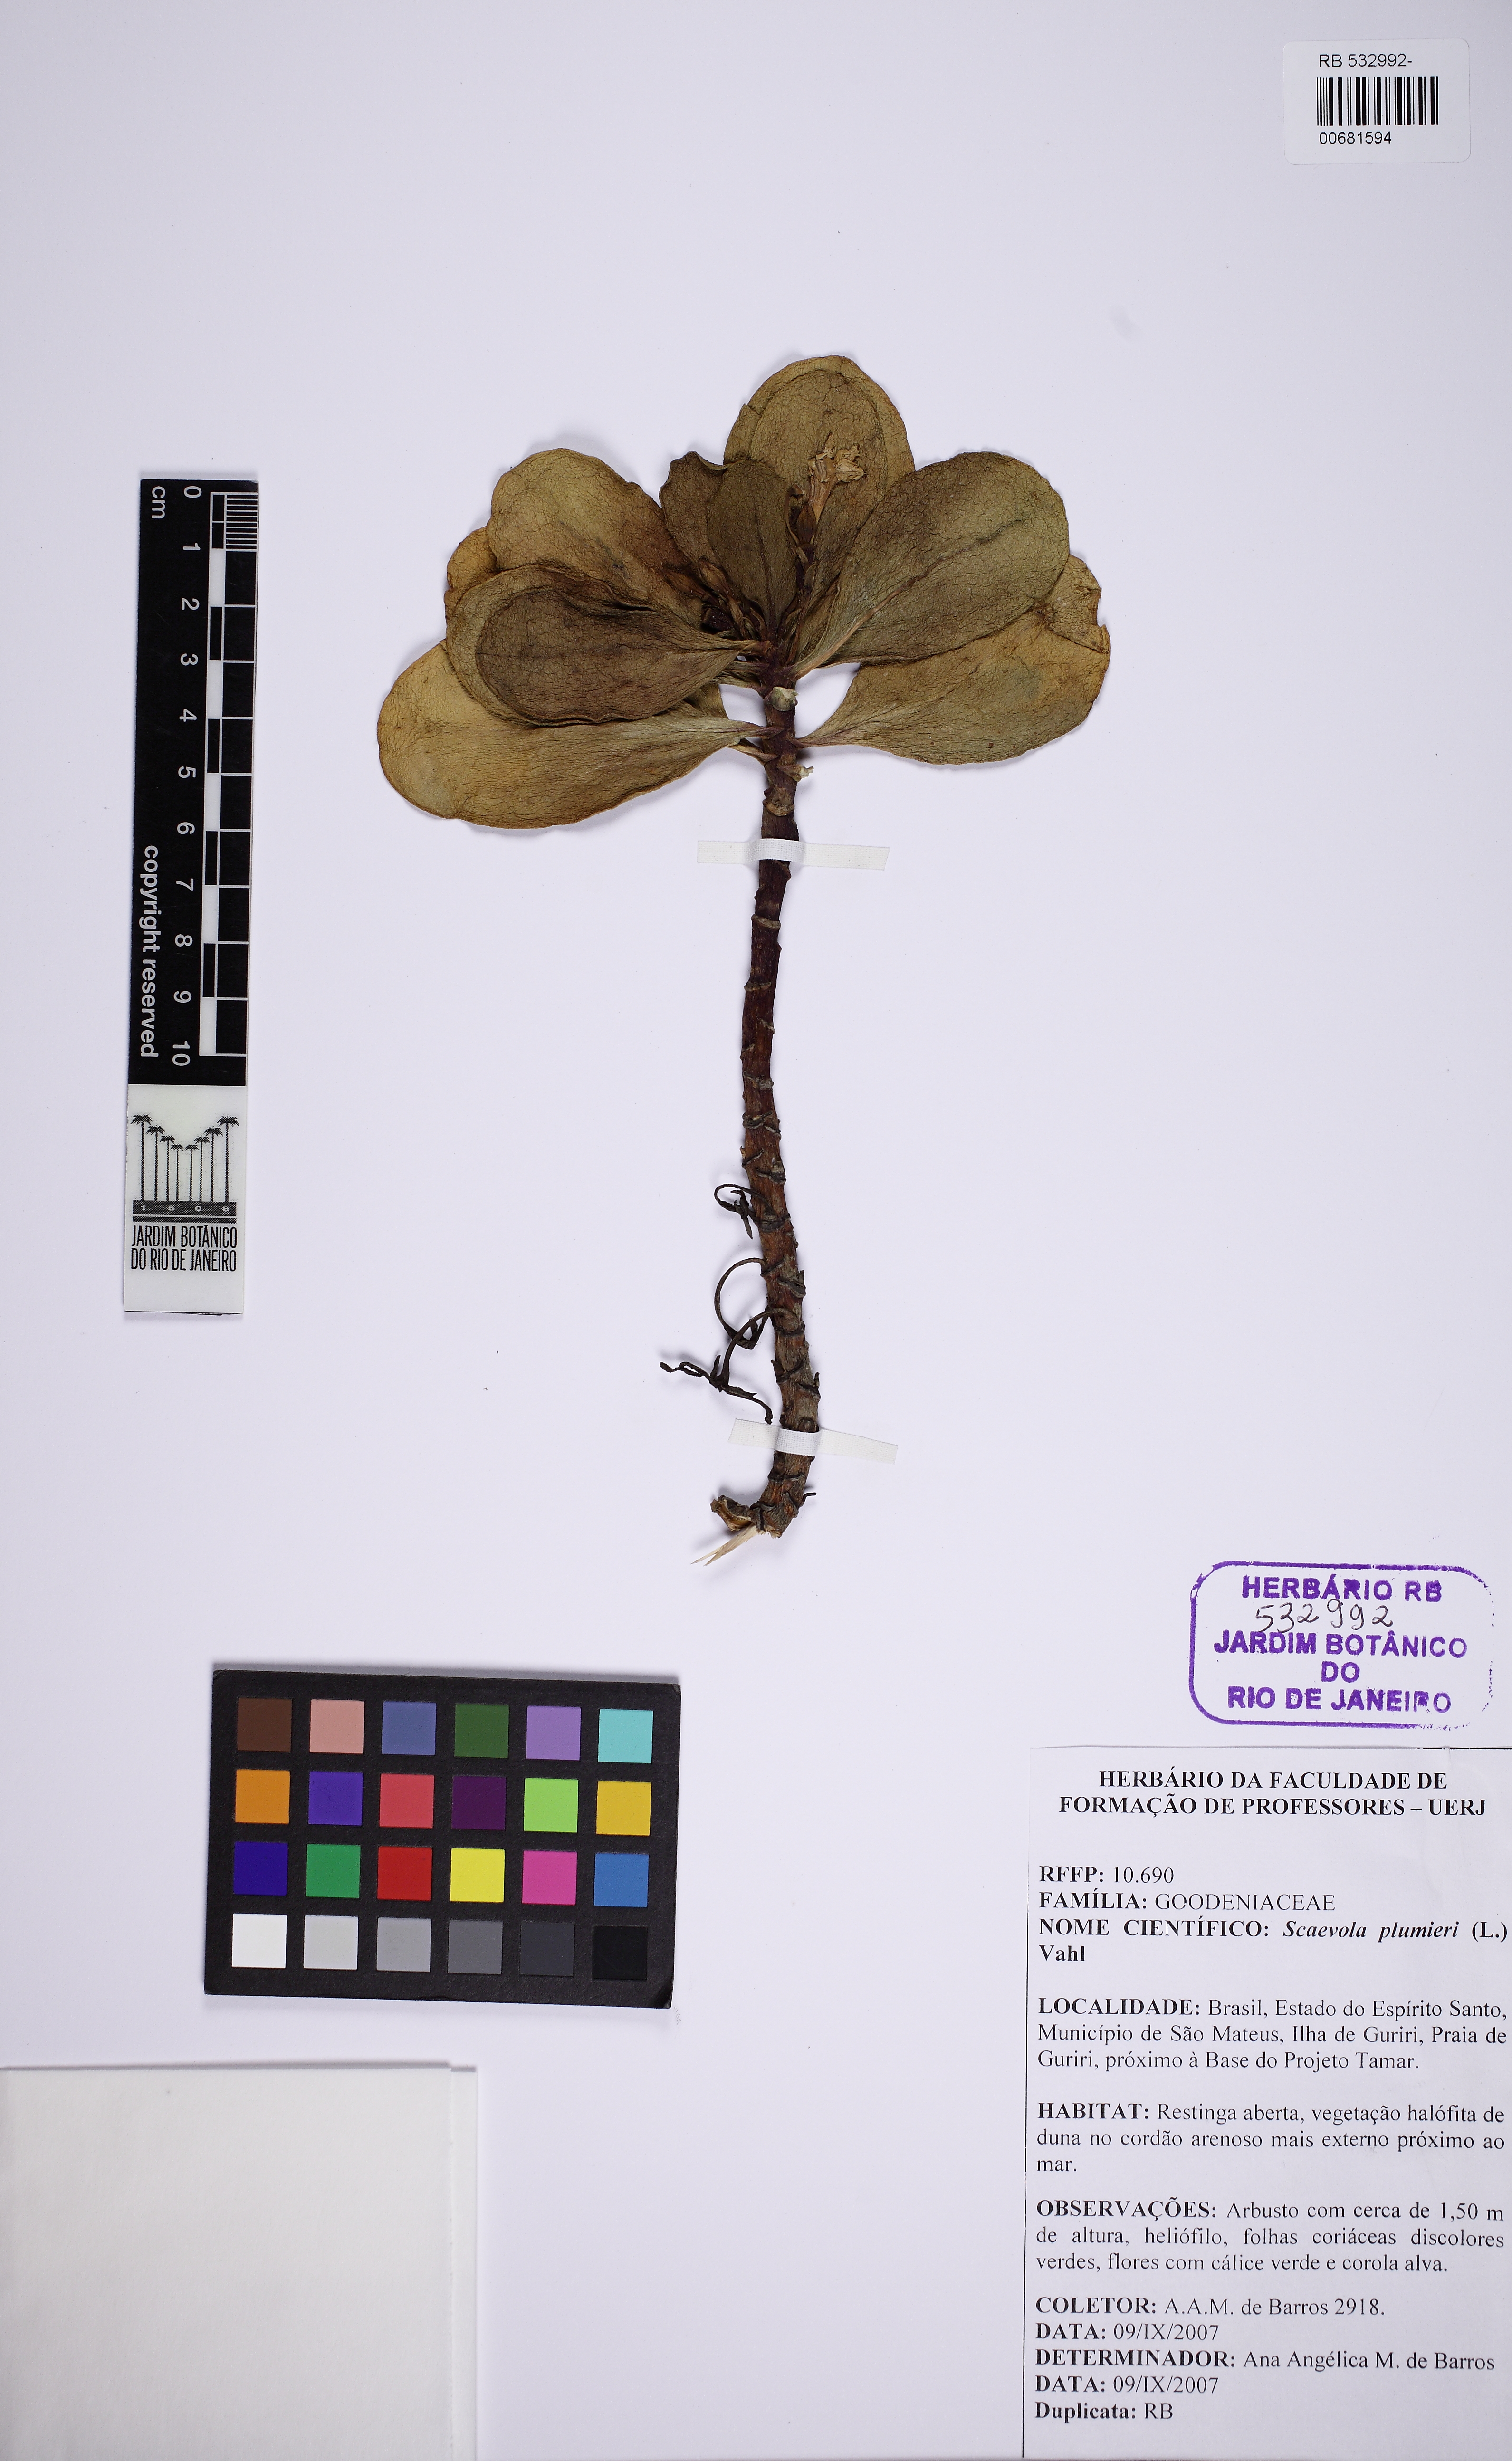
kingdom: Plantae
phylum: Tracheophyta
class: Magnoliopsida
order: Asterales
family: Goodeniaceae
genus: Scaevola
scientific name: Scaevola plumieri
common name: Gull feed
